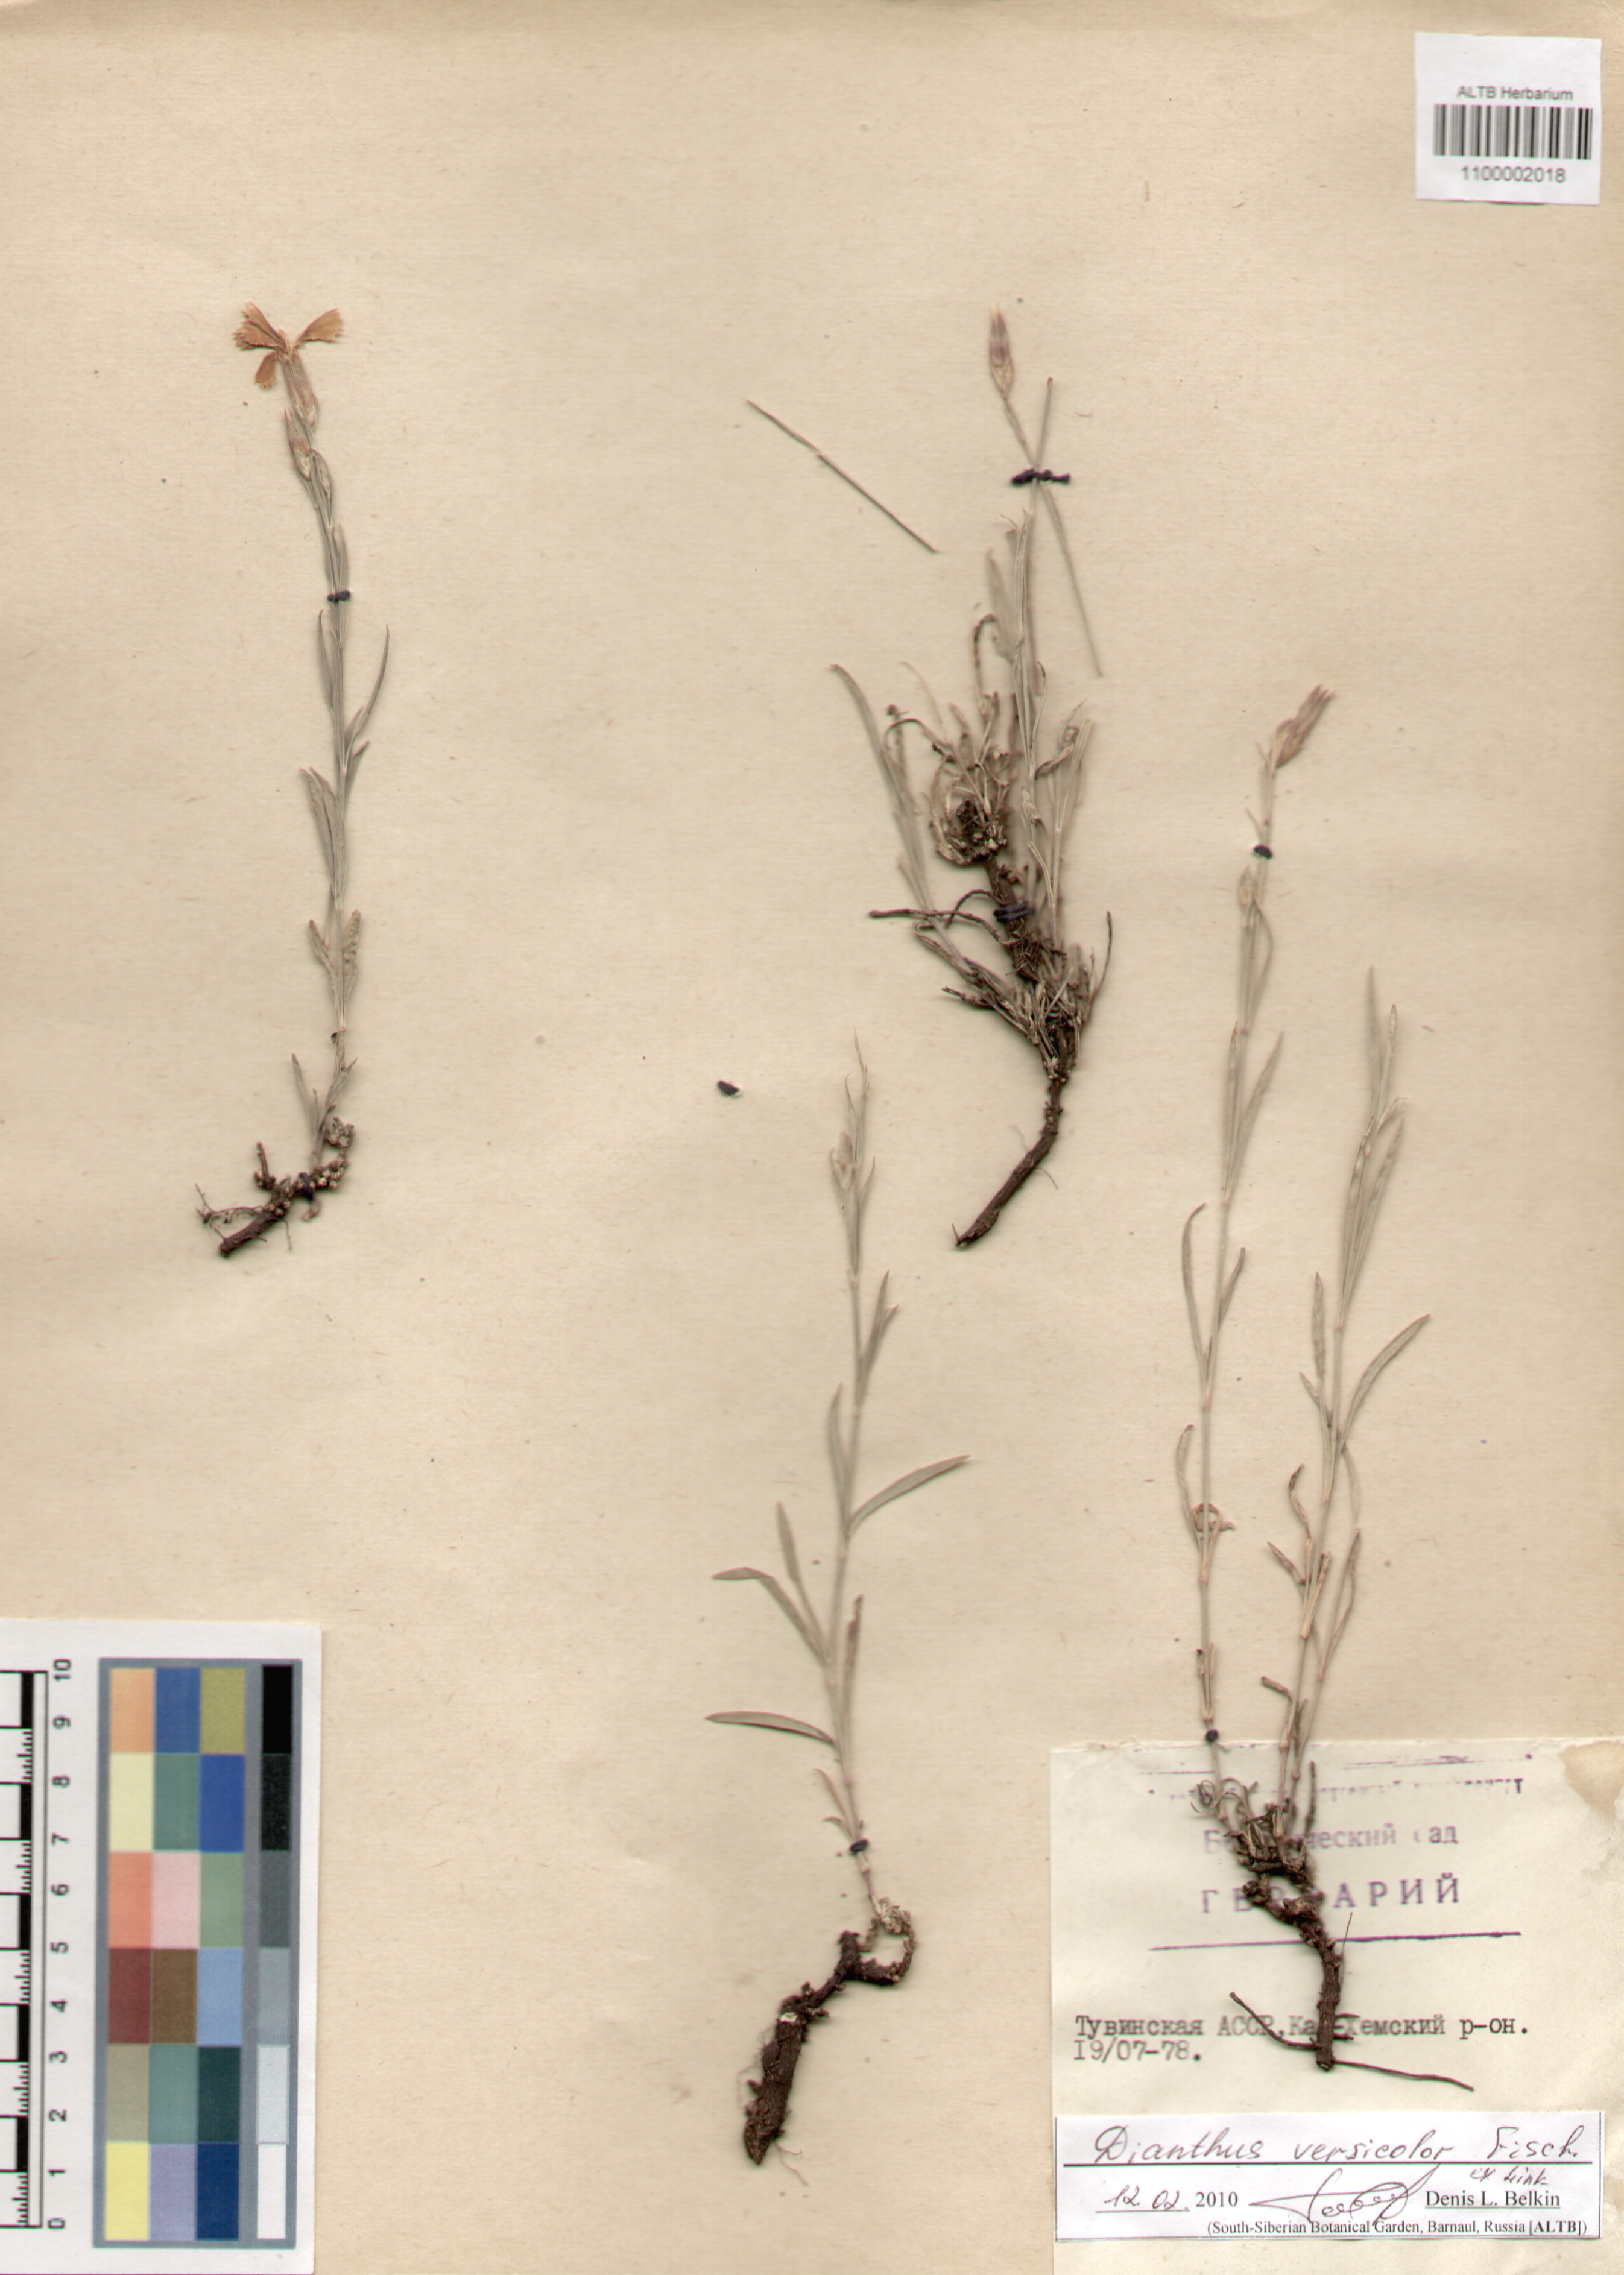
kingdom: Plantae
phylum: Tracheophyta
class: Magnoliopsida
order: Caryophyllales
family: Caryophyllaceae
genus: Dianthus
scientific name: Dianthus chinensis
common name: Rainbow pink
